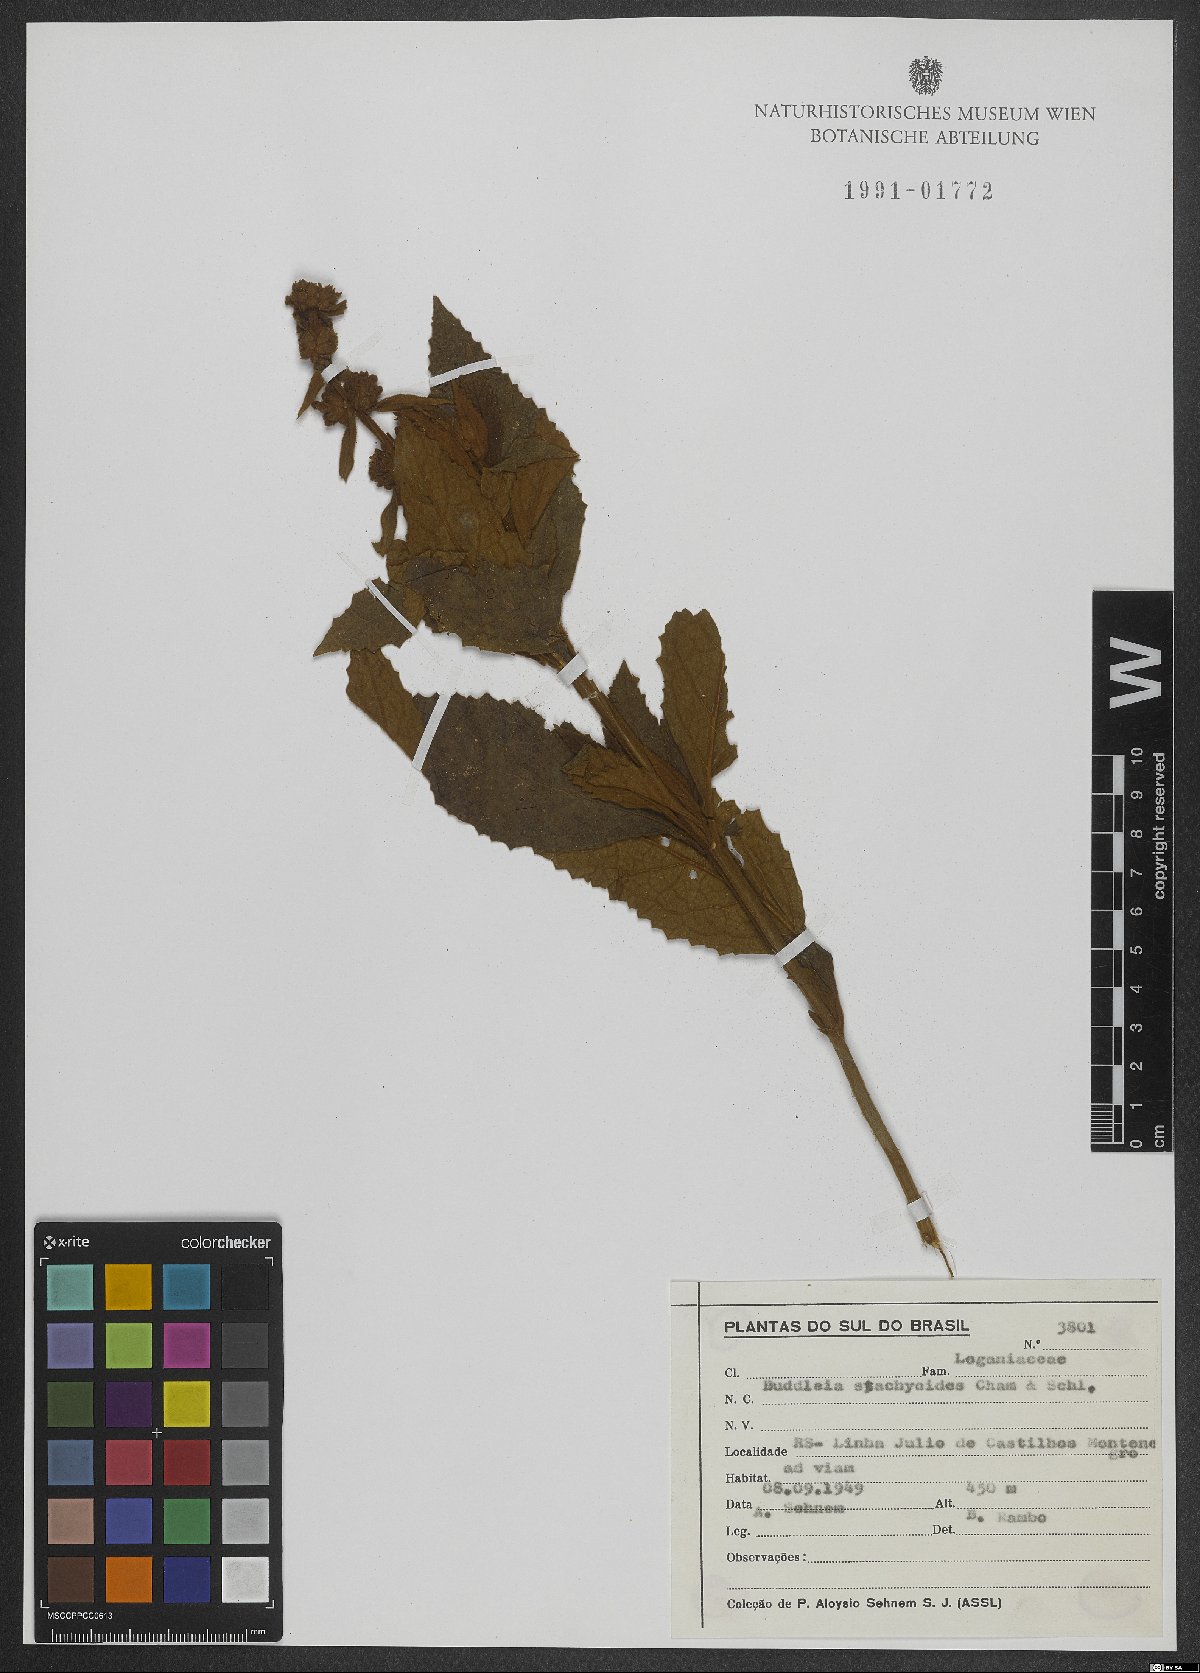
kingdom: Plantae
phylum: Tracheophyta
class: Magnoliopsida
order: Lamiales
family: Scrophulariaceae
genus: Buddleja
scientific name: Buddleja stachyoides
